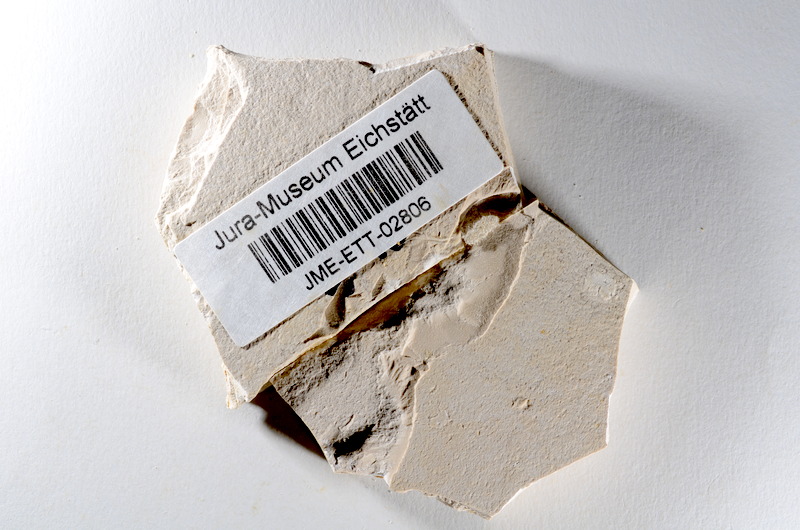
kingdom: Animalia
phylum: Chordata
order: Salmoniformes
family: Orthogonikleithridae
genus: Orthogonikleithrus
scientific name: Orthogonikleithrus hoelli
